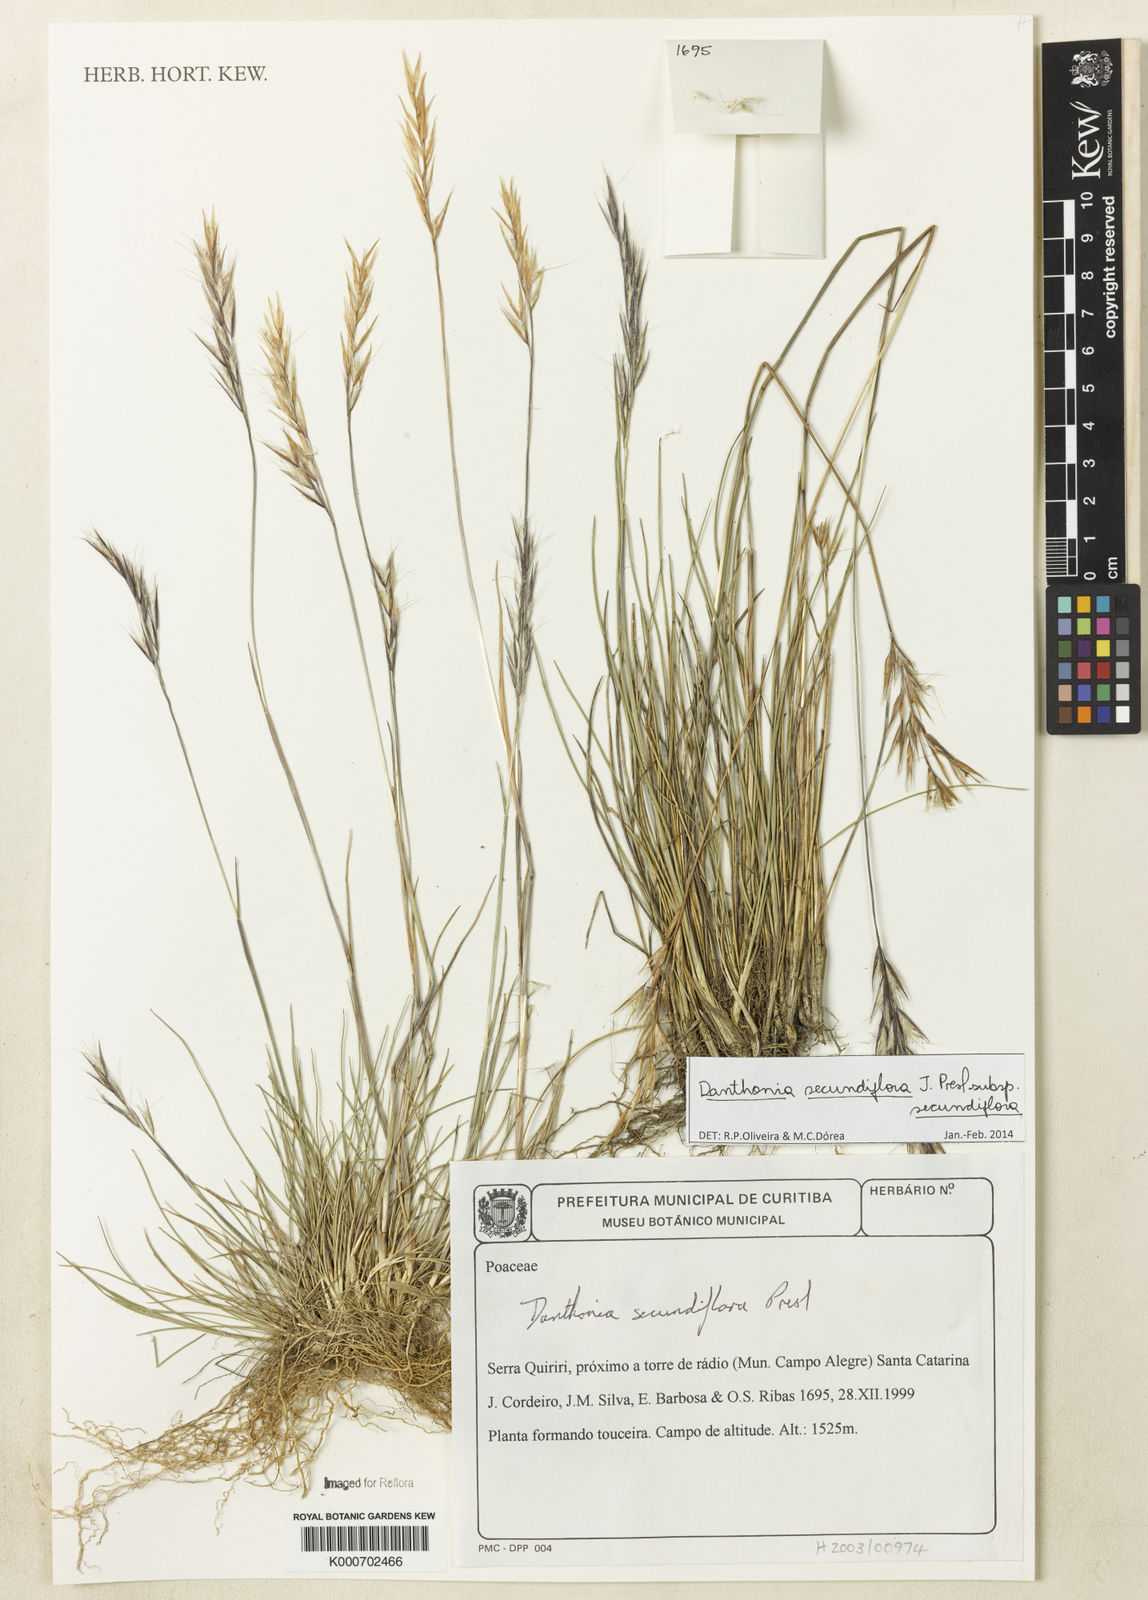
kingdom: Plantae
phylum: Tracheophyta
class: Liliopsida
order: Poales
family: Poaceae
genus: Danthonia
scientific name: Danthonia secundiflora
